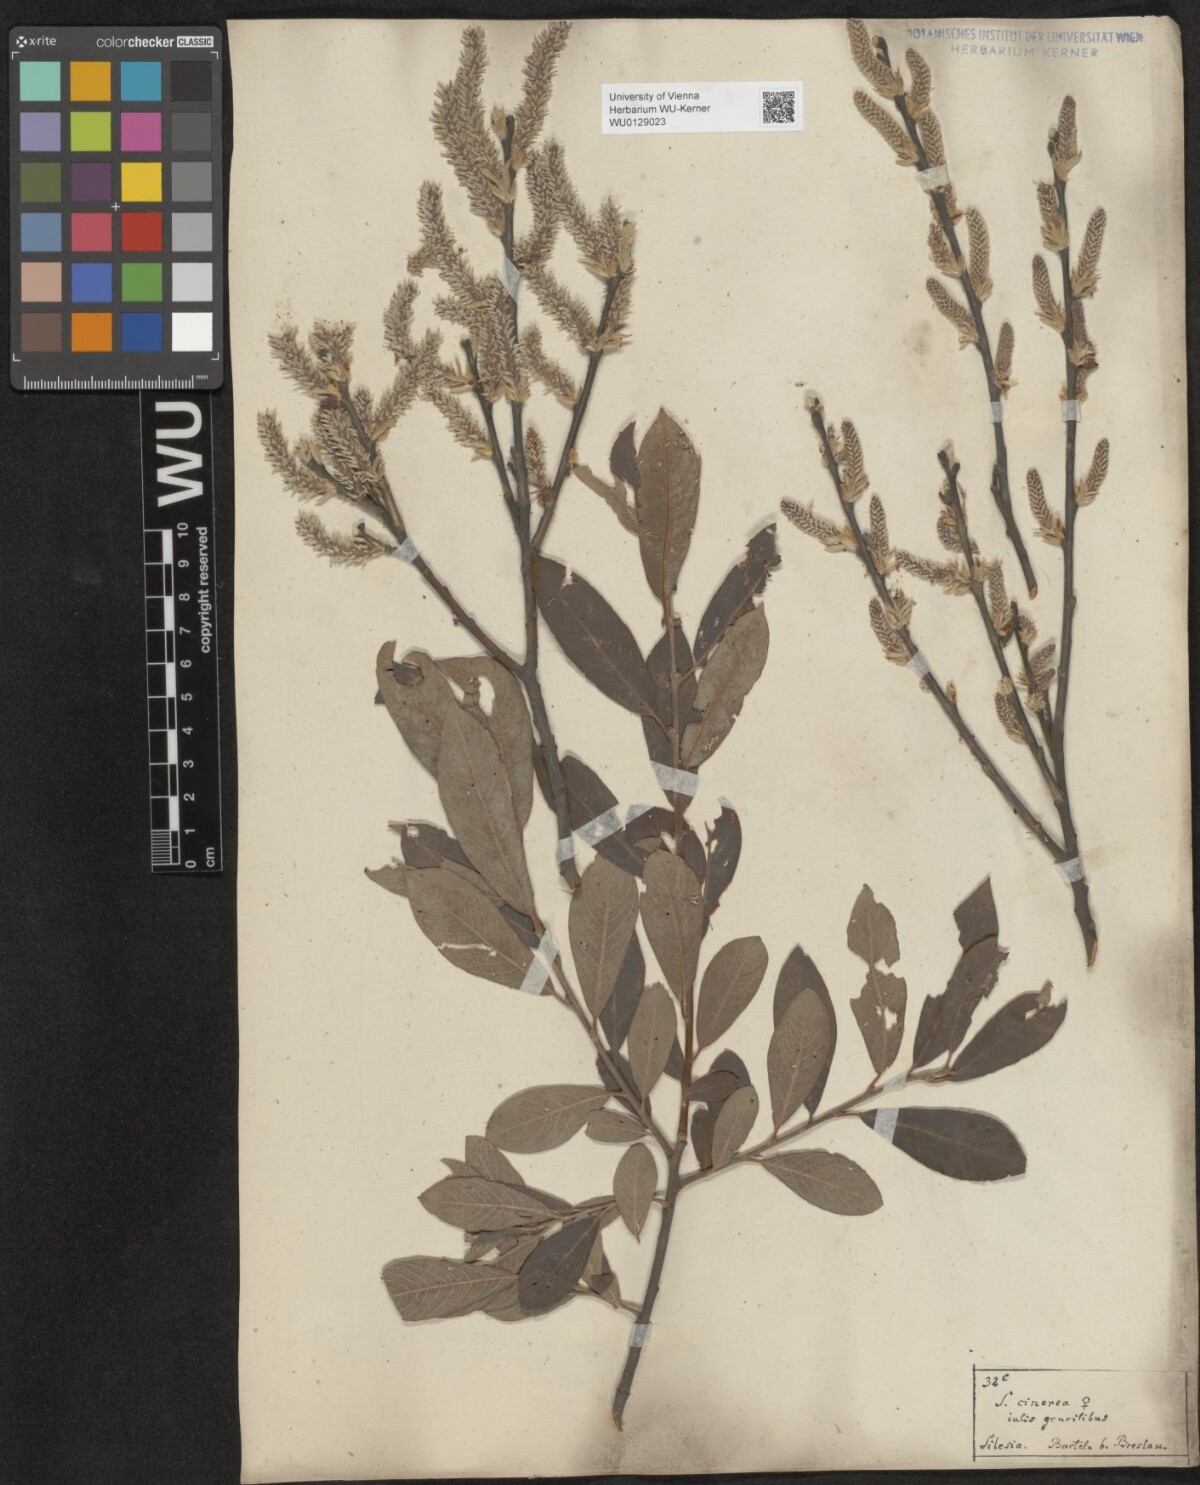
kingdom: Plantae
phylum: Tracheophyta
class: Magnoliopsida
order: Malpighiales
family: Salicaceae
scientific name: Salicaceae
